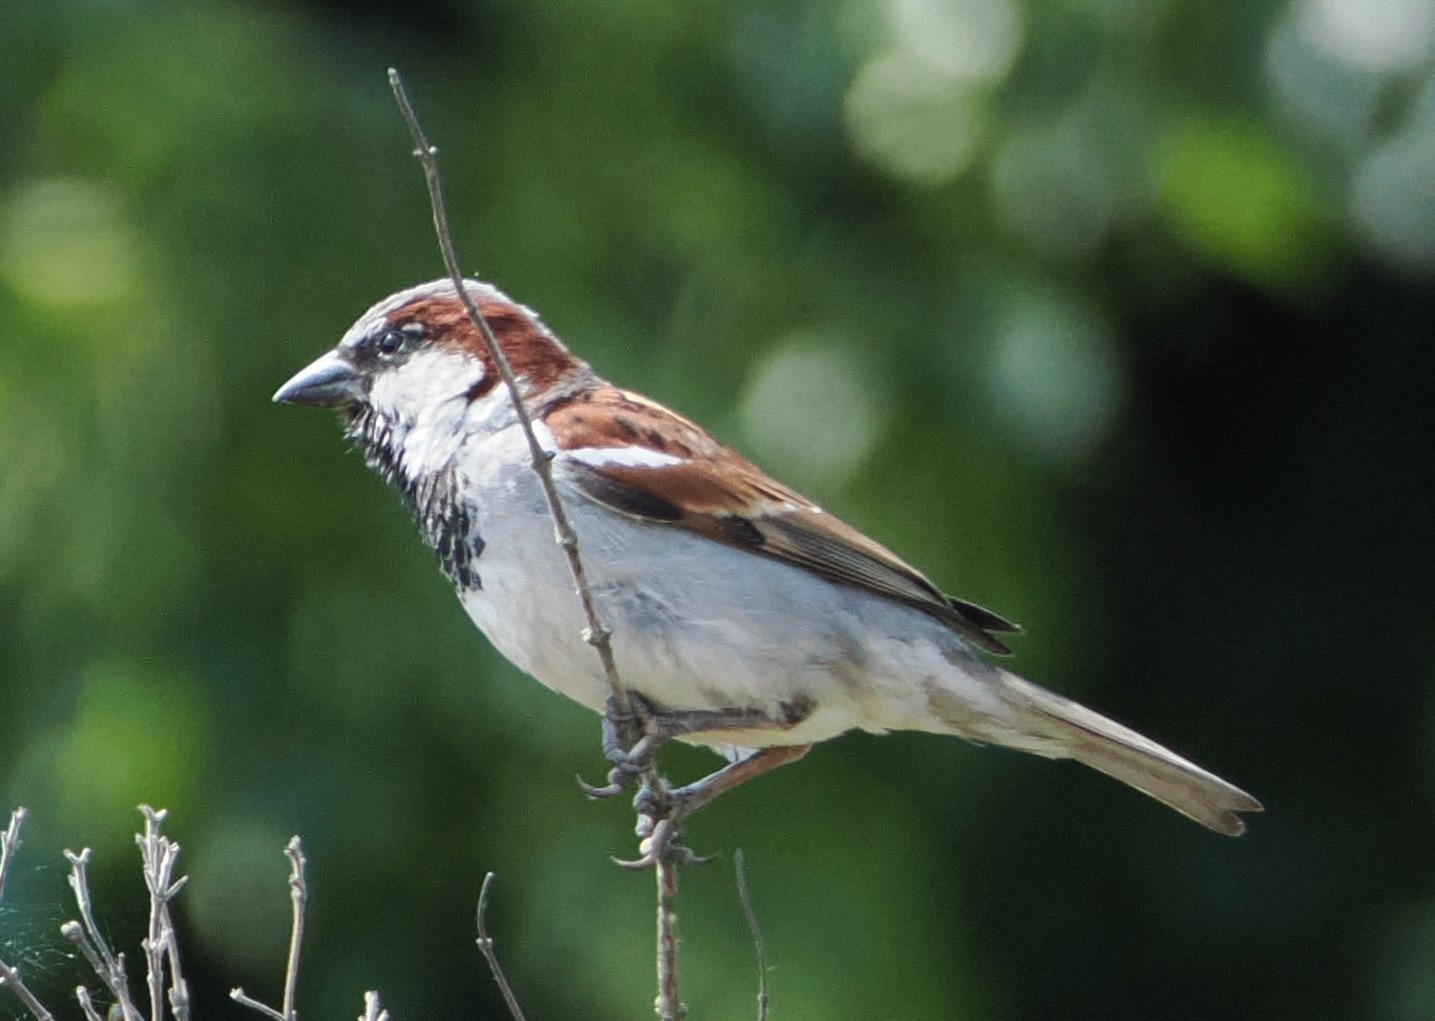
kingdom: Animalia
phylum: Chordata
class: Aves
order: Passeriformes
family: Passeridae
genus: Passer
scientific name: Passer domesticus
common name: Gråspurv
